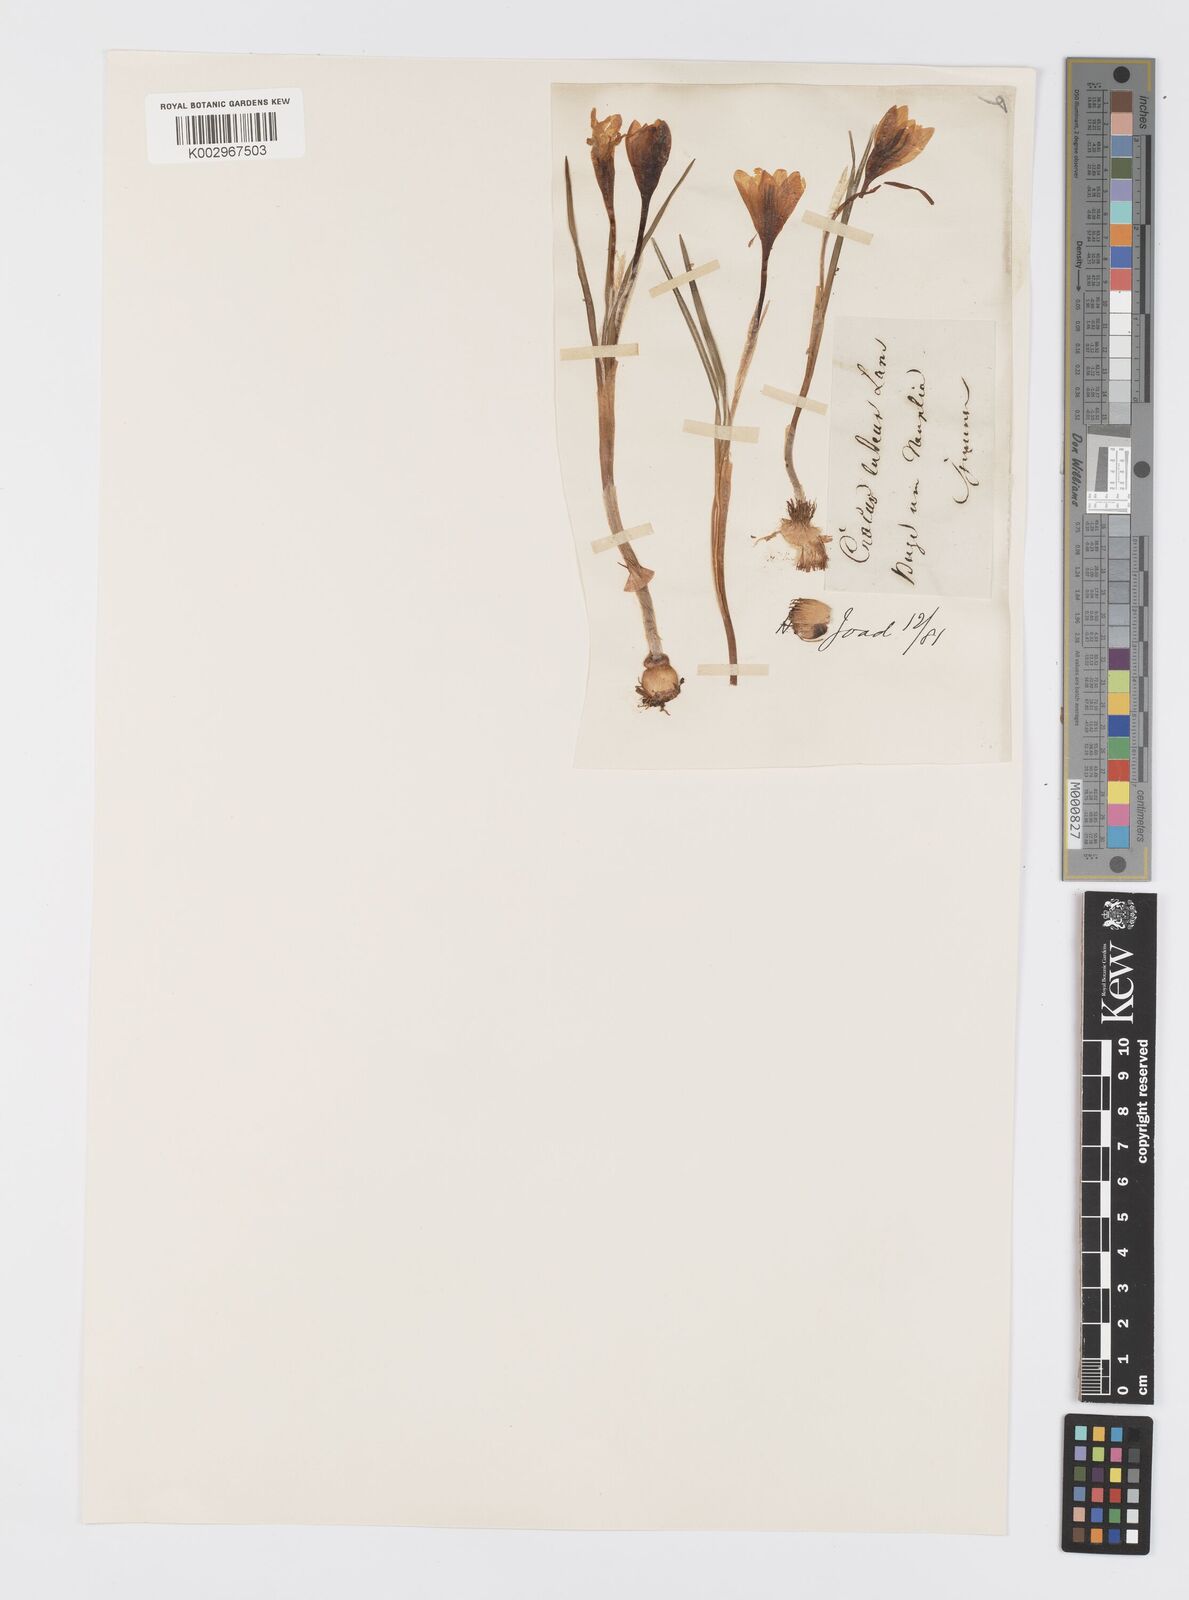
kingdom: Plantae
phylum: Tracheophyta
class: Liliopsida
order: Asparagales
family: Iridaceae
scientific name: Iridaceae
